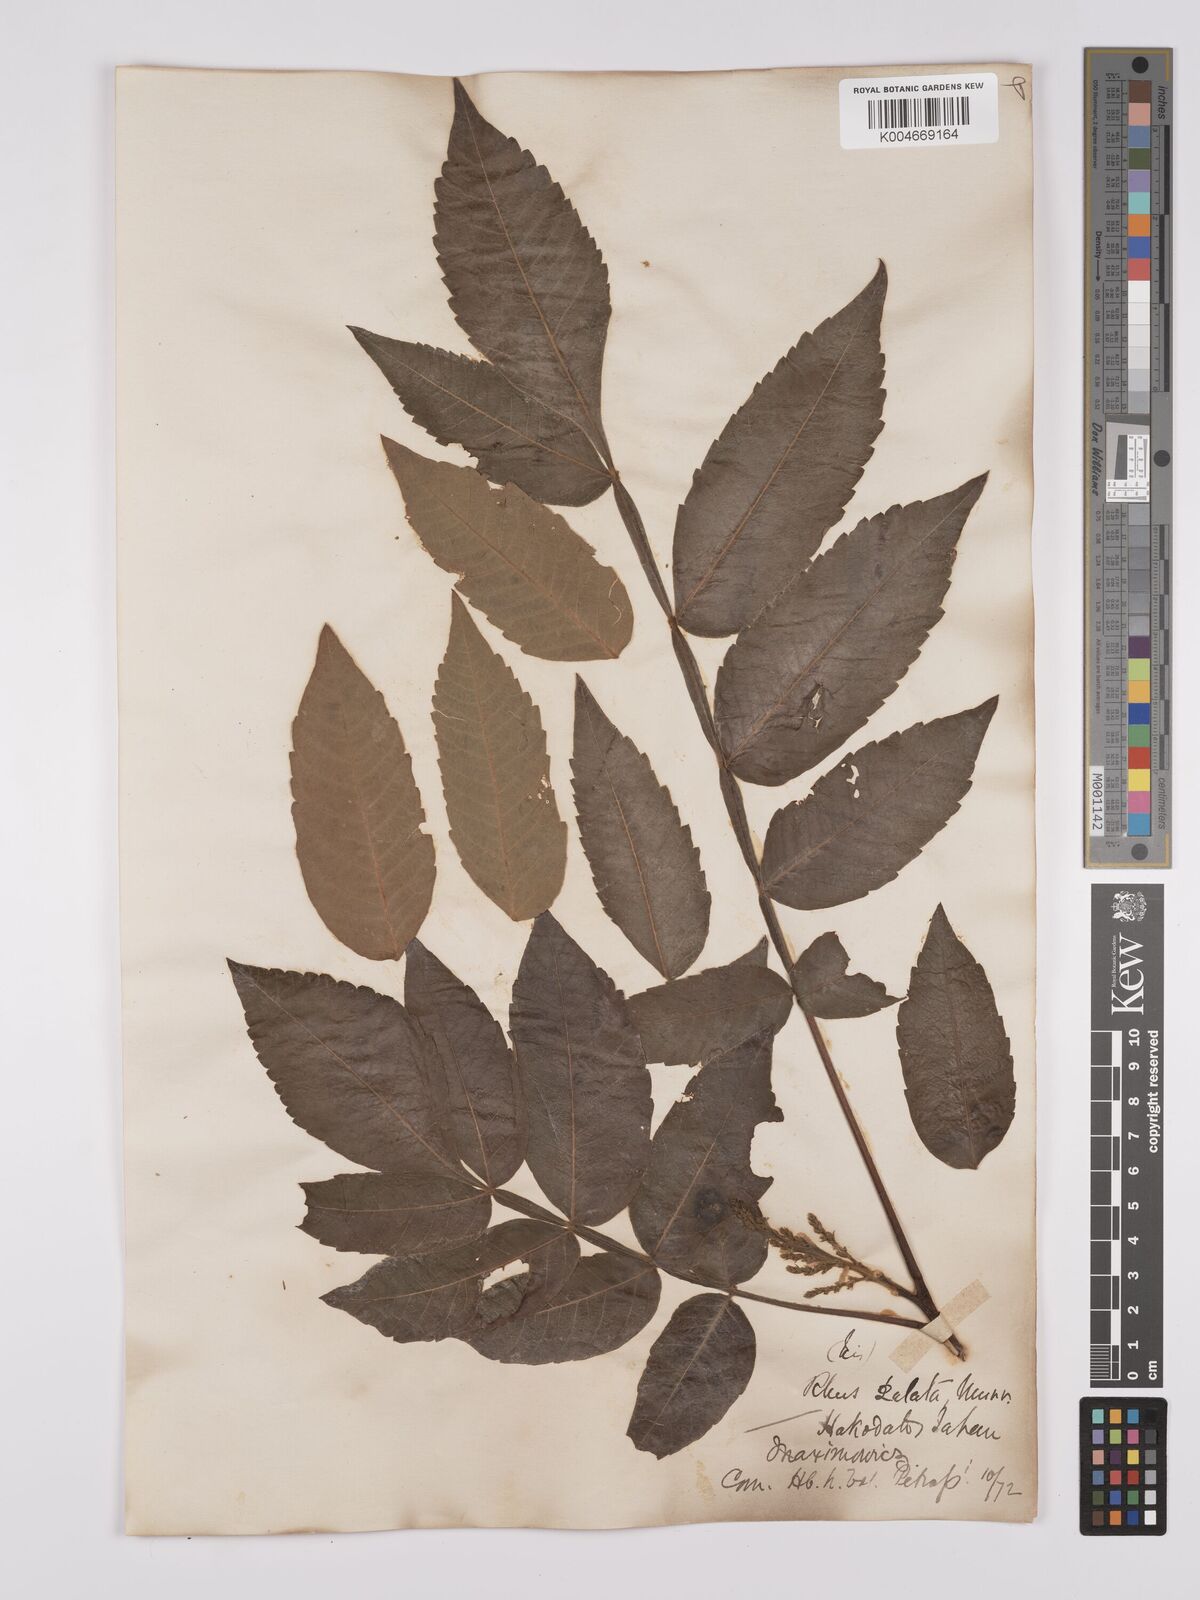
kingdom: Plantae
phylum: Tracheophyta
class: Magnoliopsida
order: Sapindales
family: Anacardiaceae
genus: Rhus
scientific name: Rhus chinensis
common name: Chinese gall
